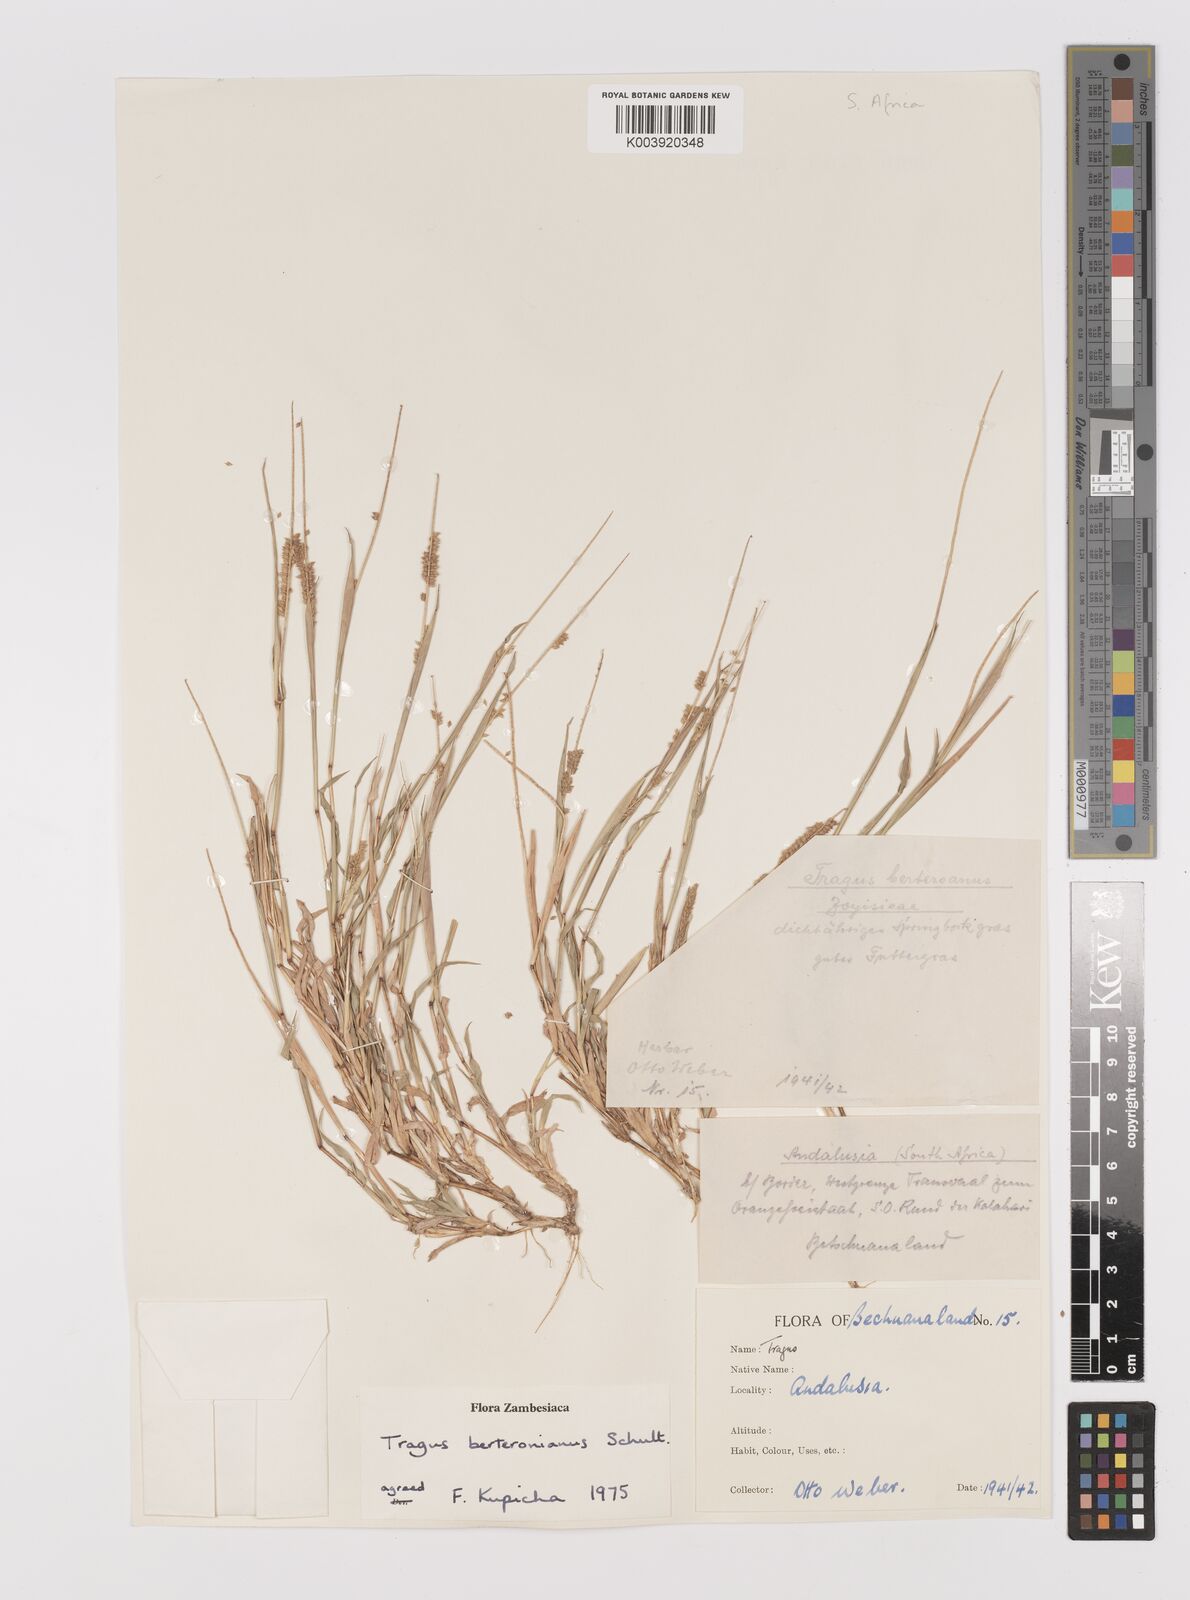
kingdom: Plantae
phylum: Tracheophyta
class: Liliopsida
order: Poales
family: Poaceae
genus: Tragus
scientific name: Tragus berteronianus
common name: African bur-grass
